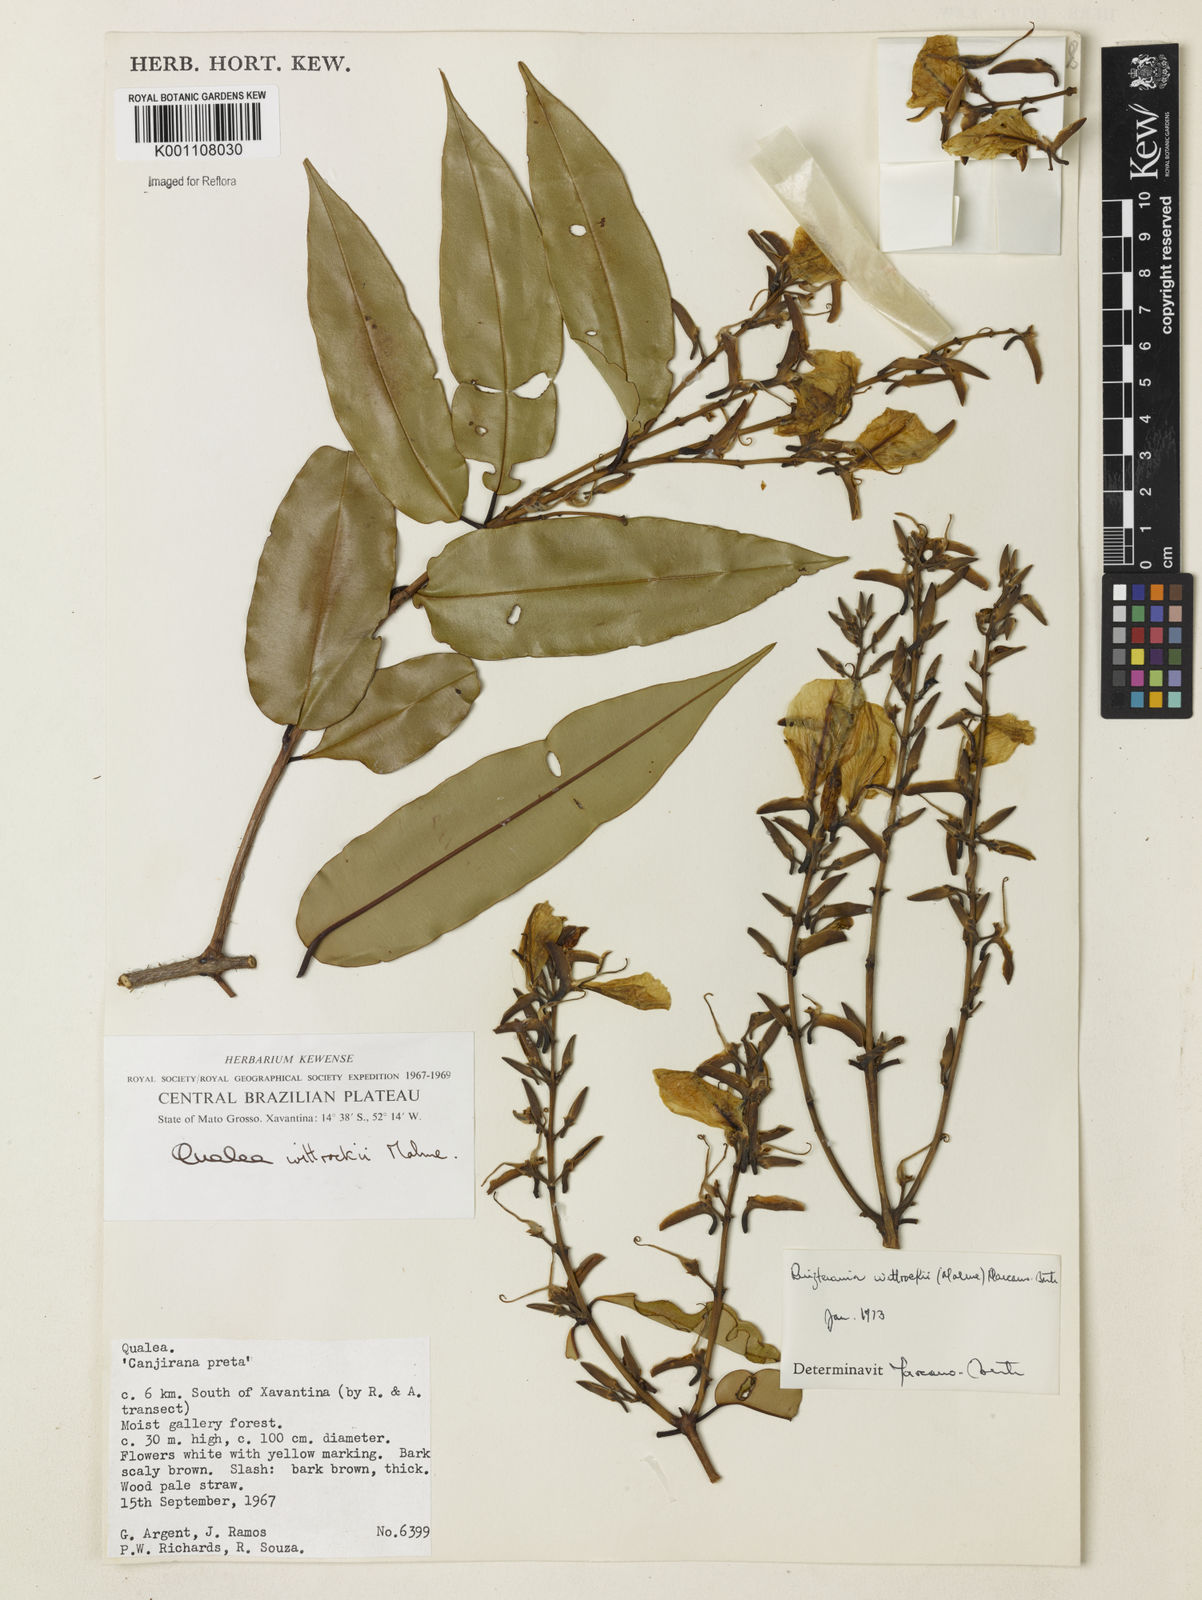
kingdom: Plantae
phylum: Tracheophyta
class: Magnoliopsida
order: Myrtales
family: Vochysiaceae
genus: Ruizterania
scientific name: Ruizterania wittrockii
